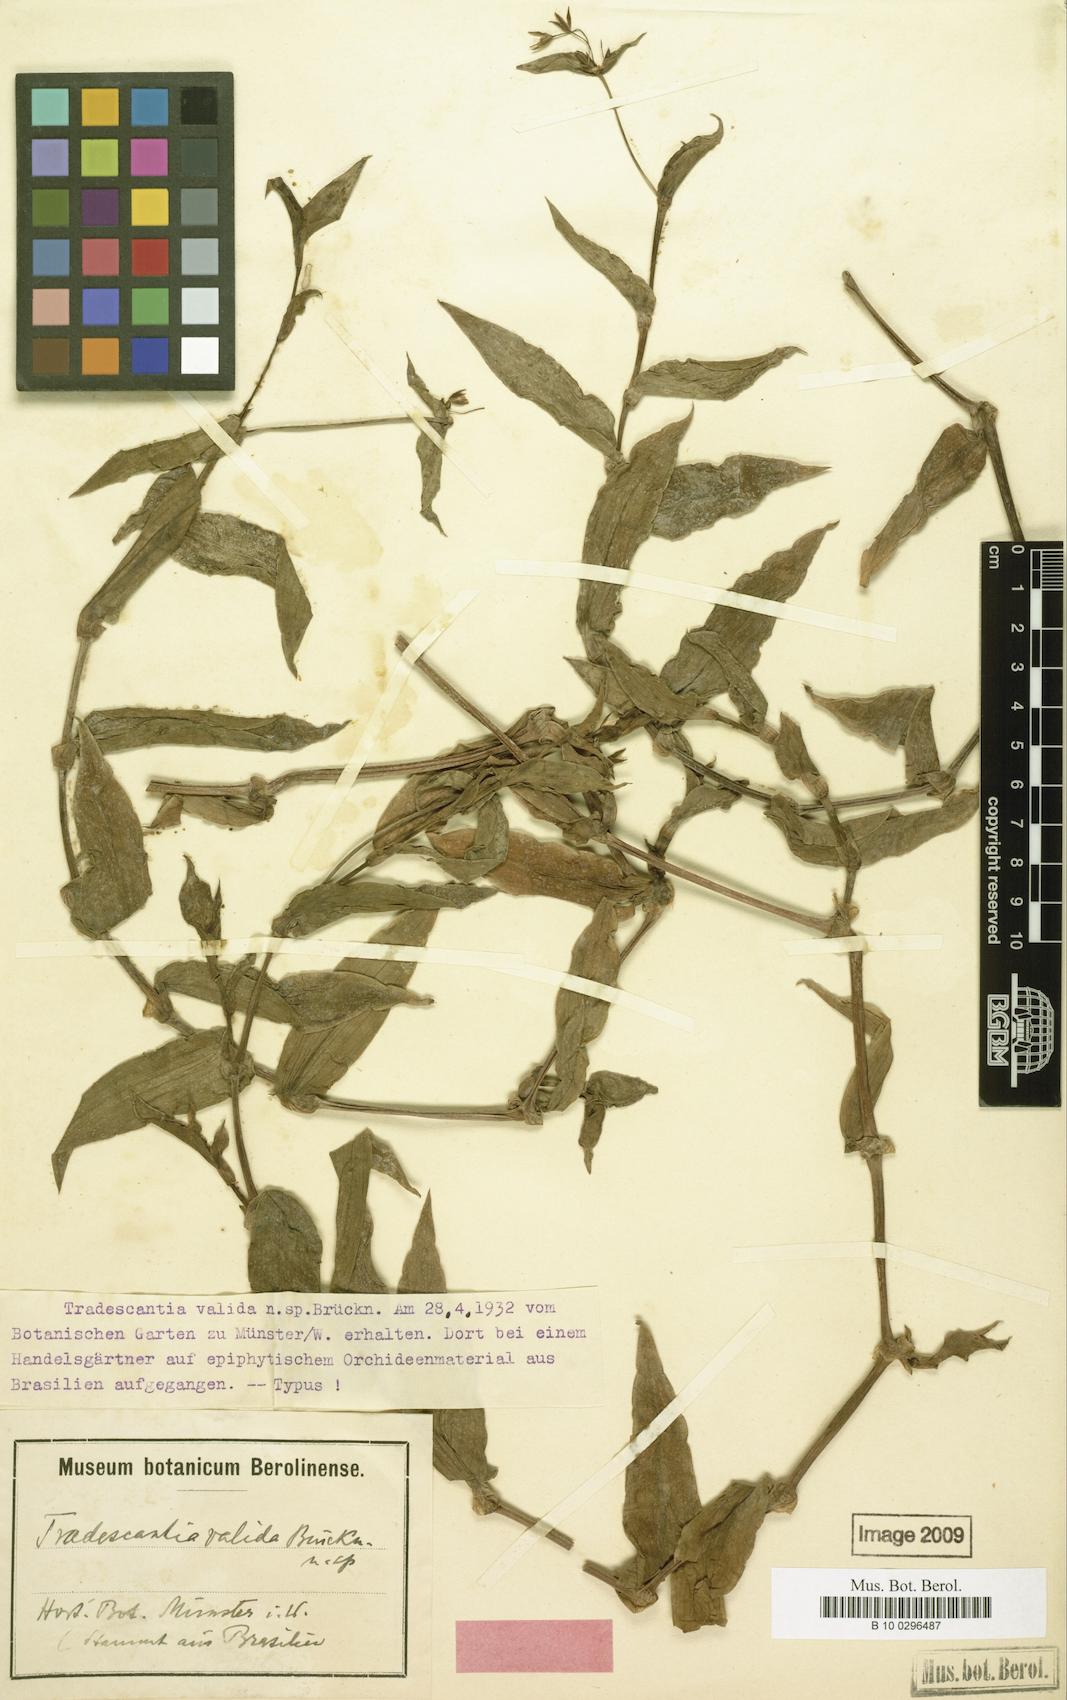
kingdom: Plantae
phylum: Tracheophyta
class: Liliopsida
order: Commelinales
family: Commelinaceae
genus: Tradescantia
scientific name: Tradescantia valida
